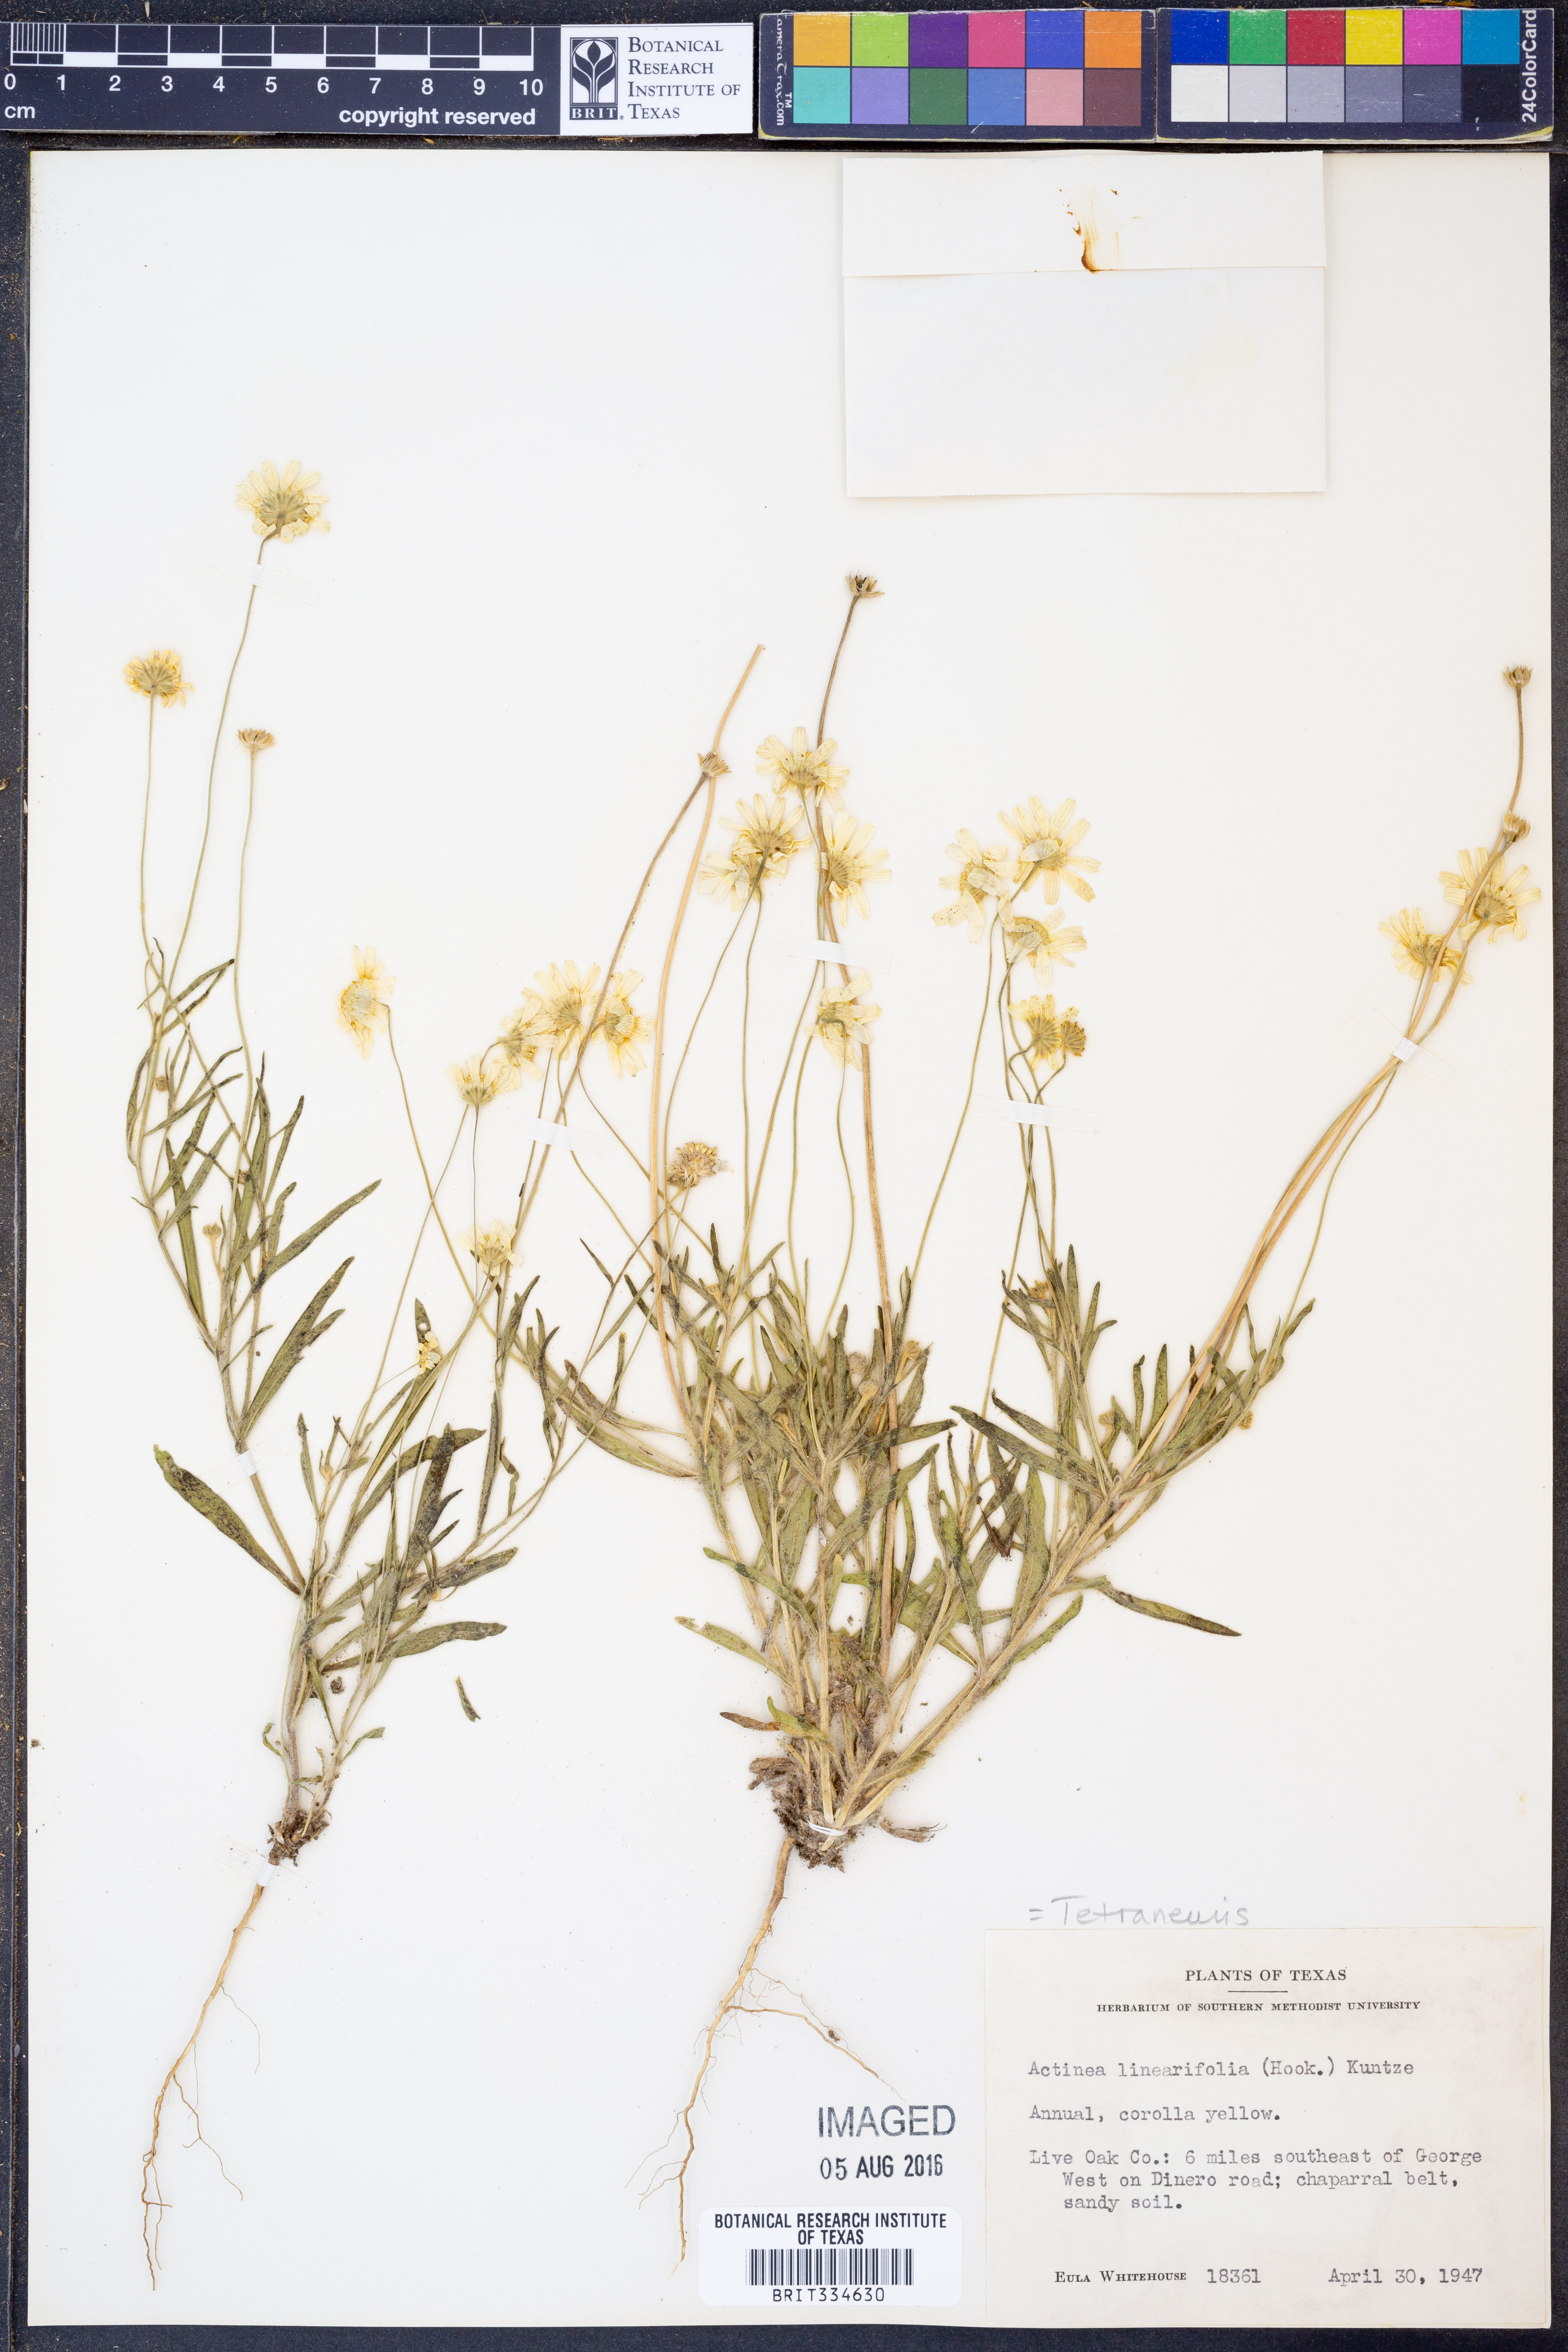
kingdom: Plantae
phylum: Tracheophyta
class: Magnoliopsida
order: Asterales
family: Asteraceae
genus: Tetraneuris
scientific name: Tetraneuris linearifolia
